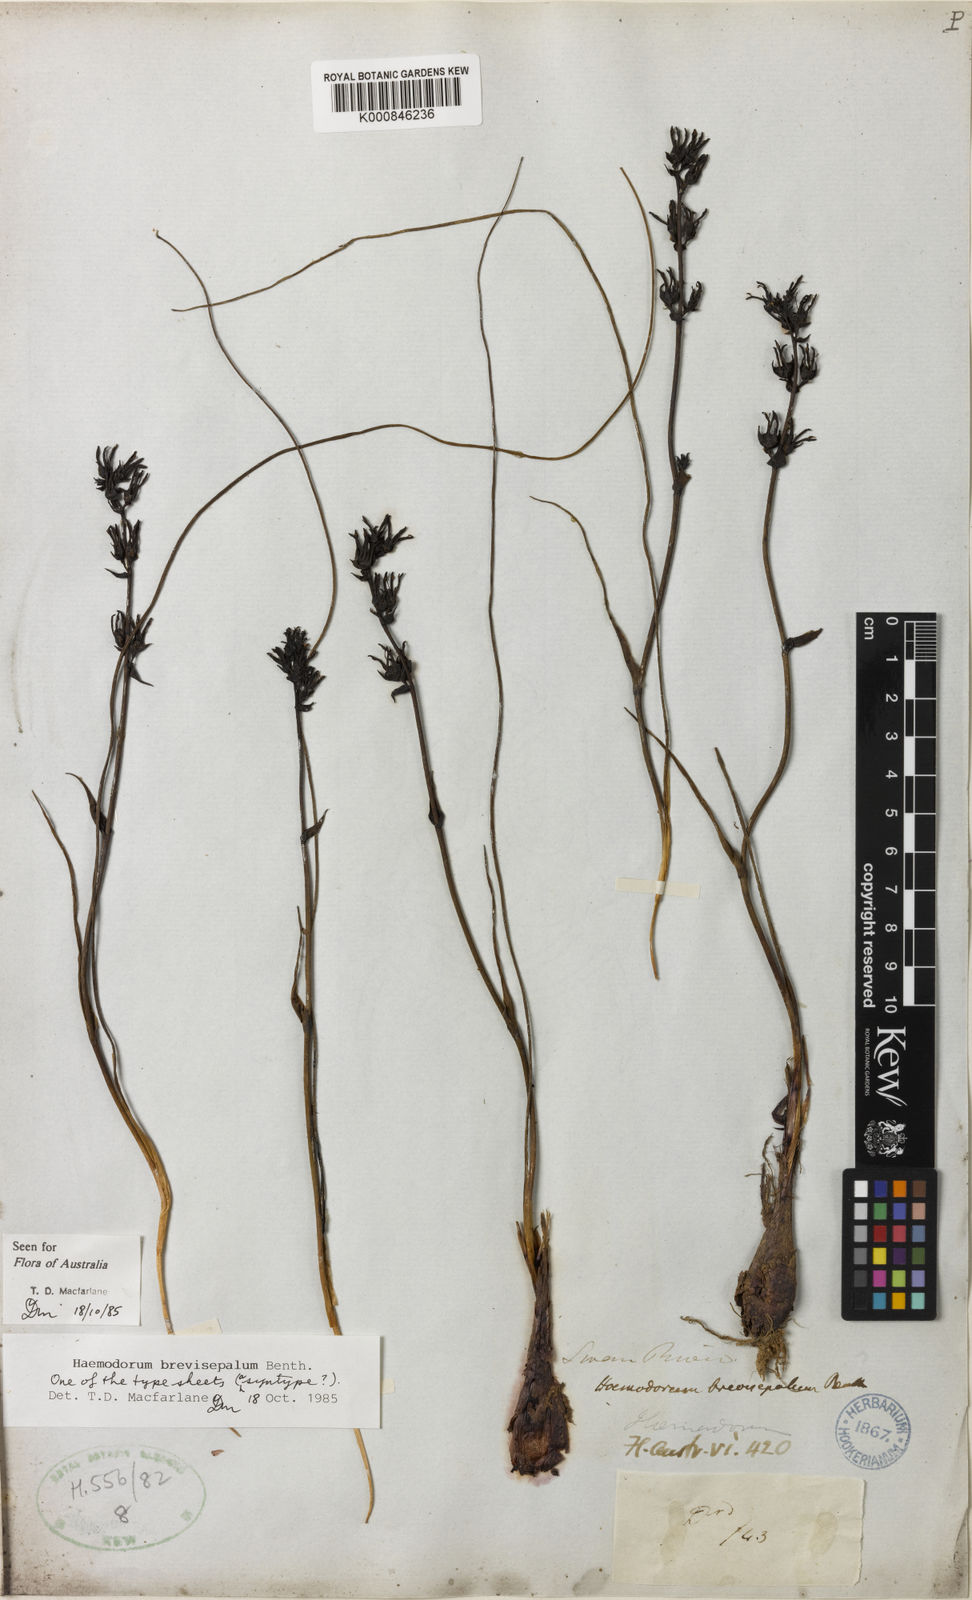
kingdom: Plantae
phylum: Tracheophyta
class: Liliopsida
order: Commelinales
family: Haemodoraceae
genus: Haemodorum
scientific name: Haemodorum brevisepalum
